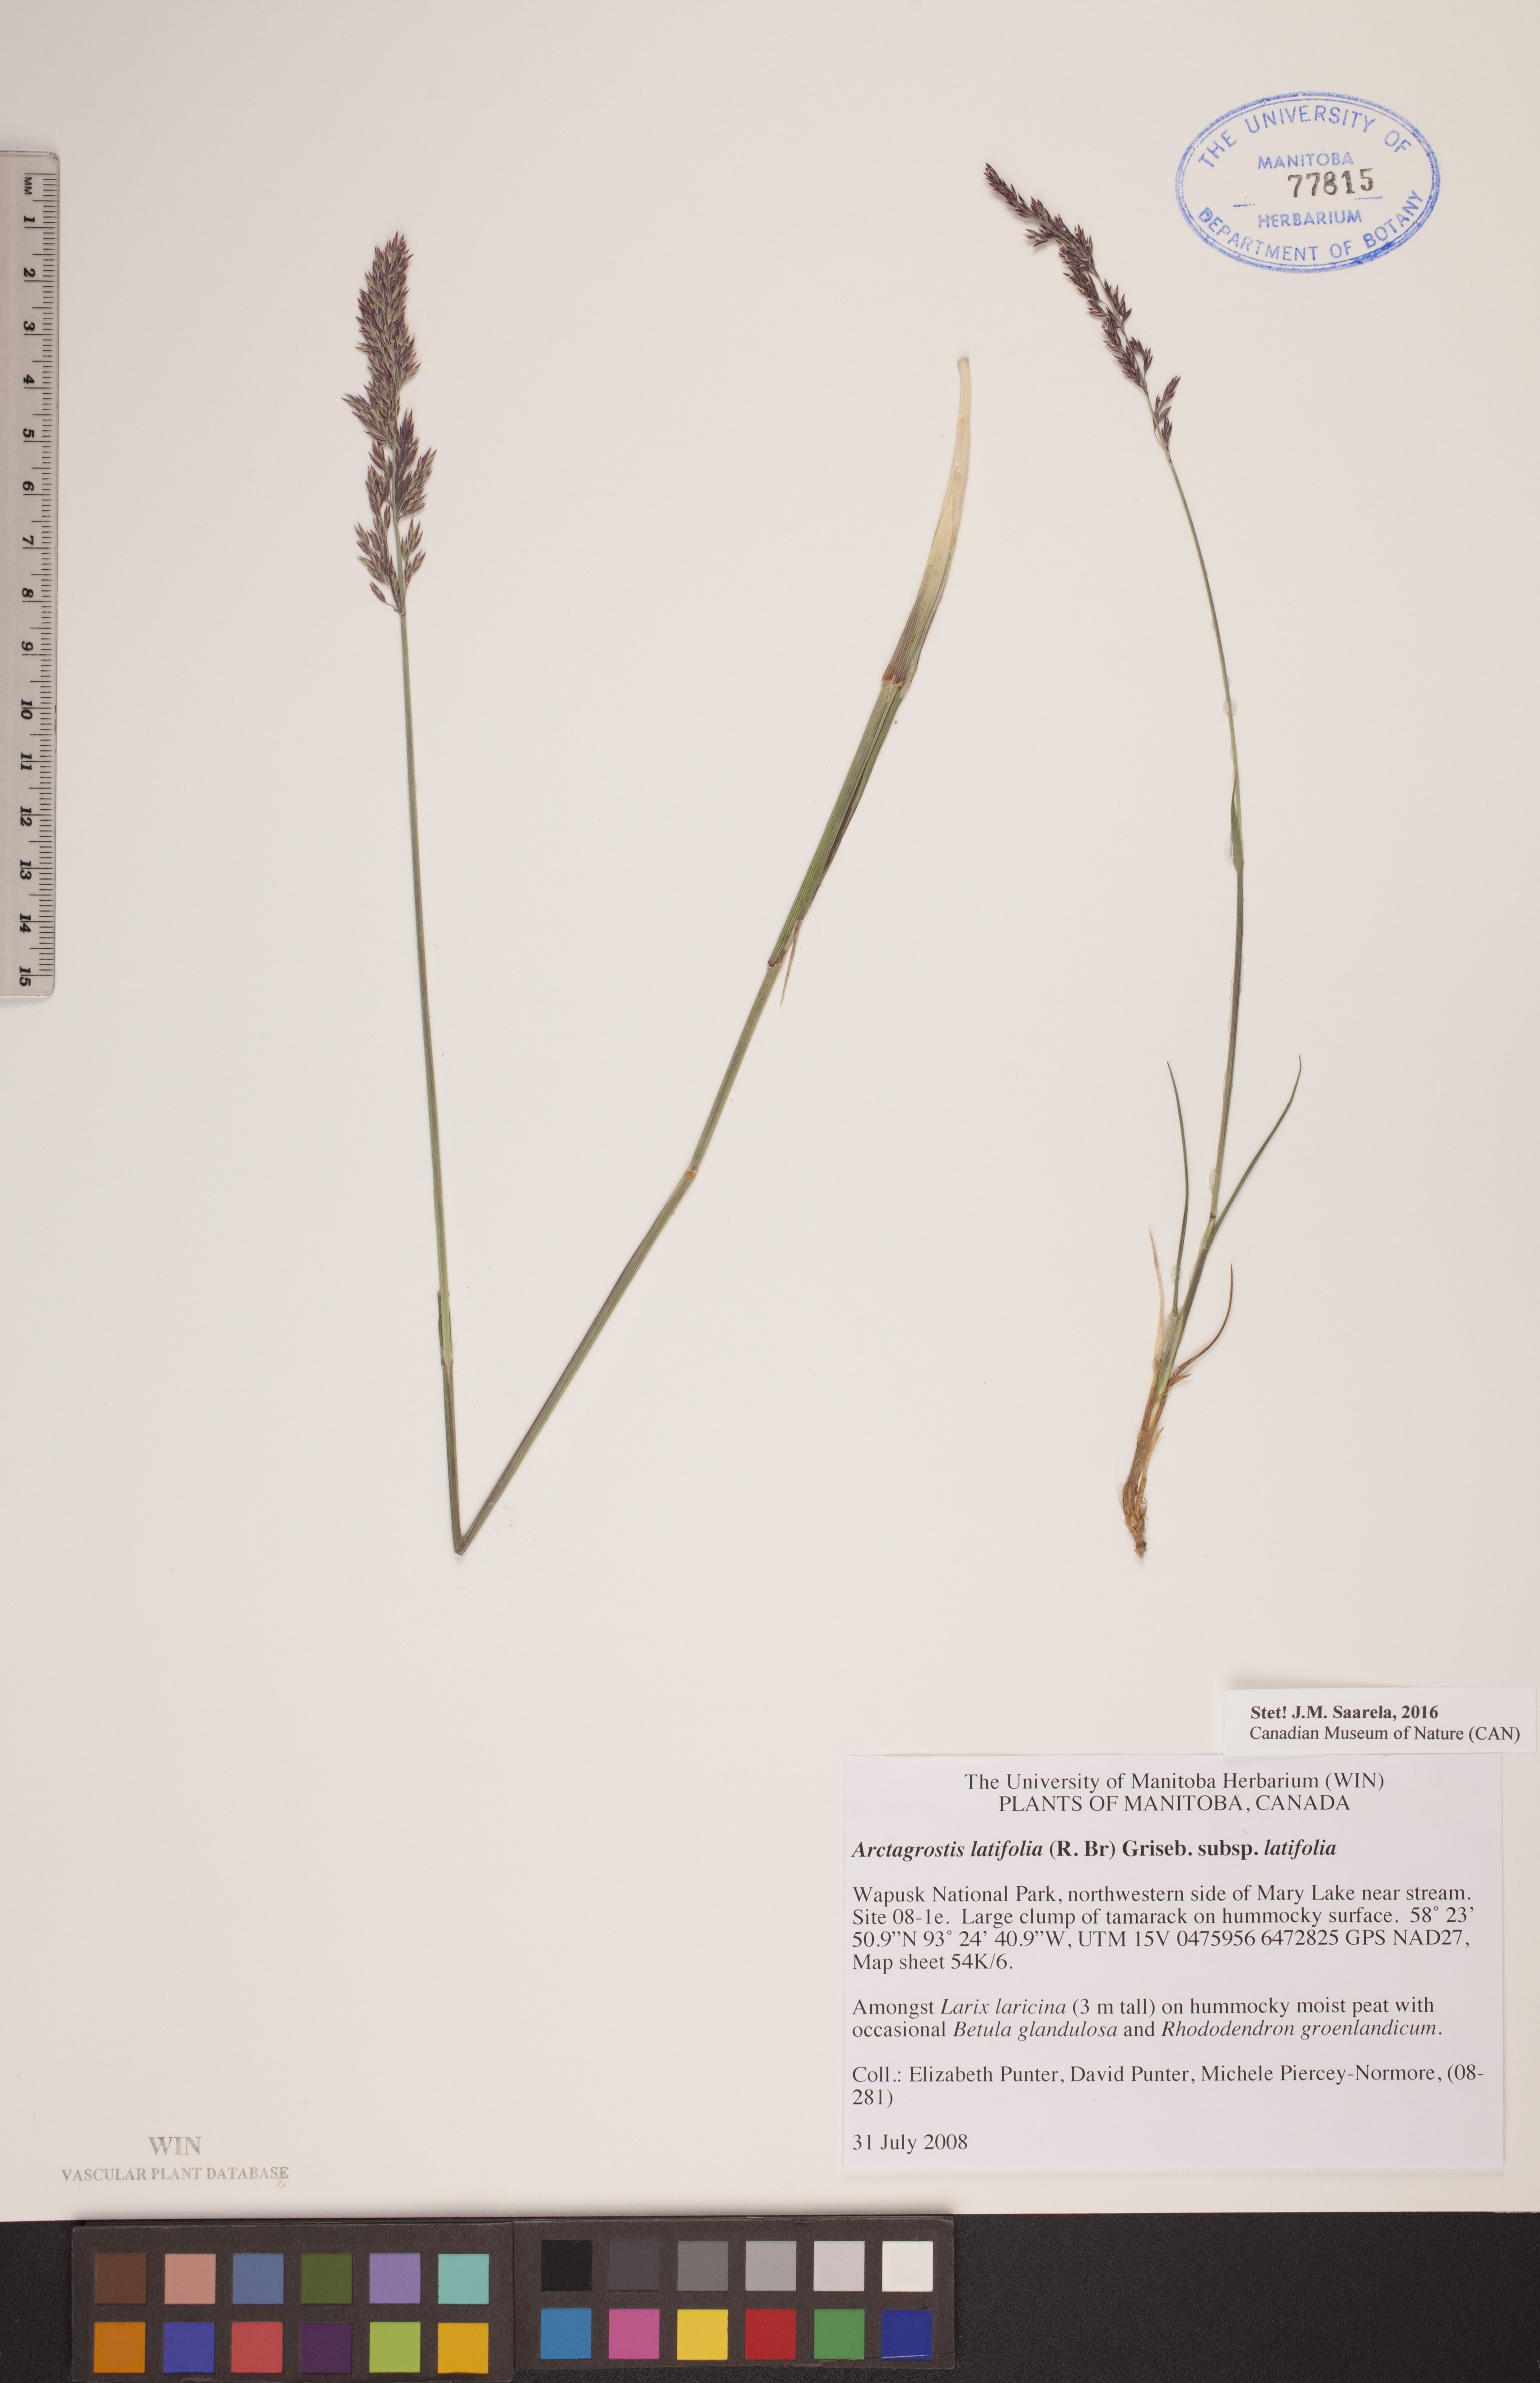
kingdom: Plantae
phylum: Tracheophyta
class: Liliopsida
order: Poales
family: Poaceae
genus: Arctagrostis
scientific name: Arctagrostis latifolia
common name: Arctic grass
